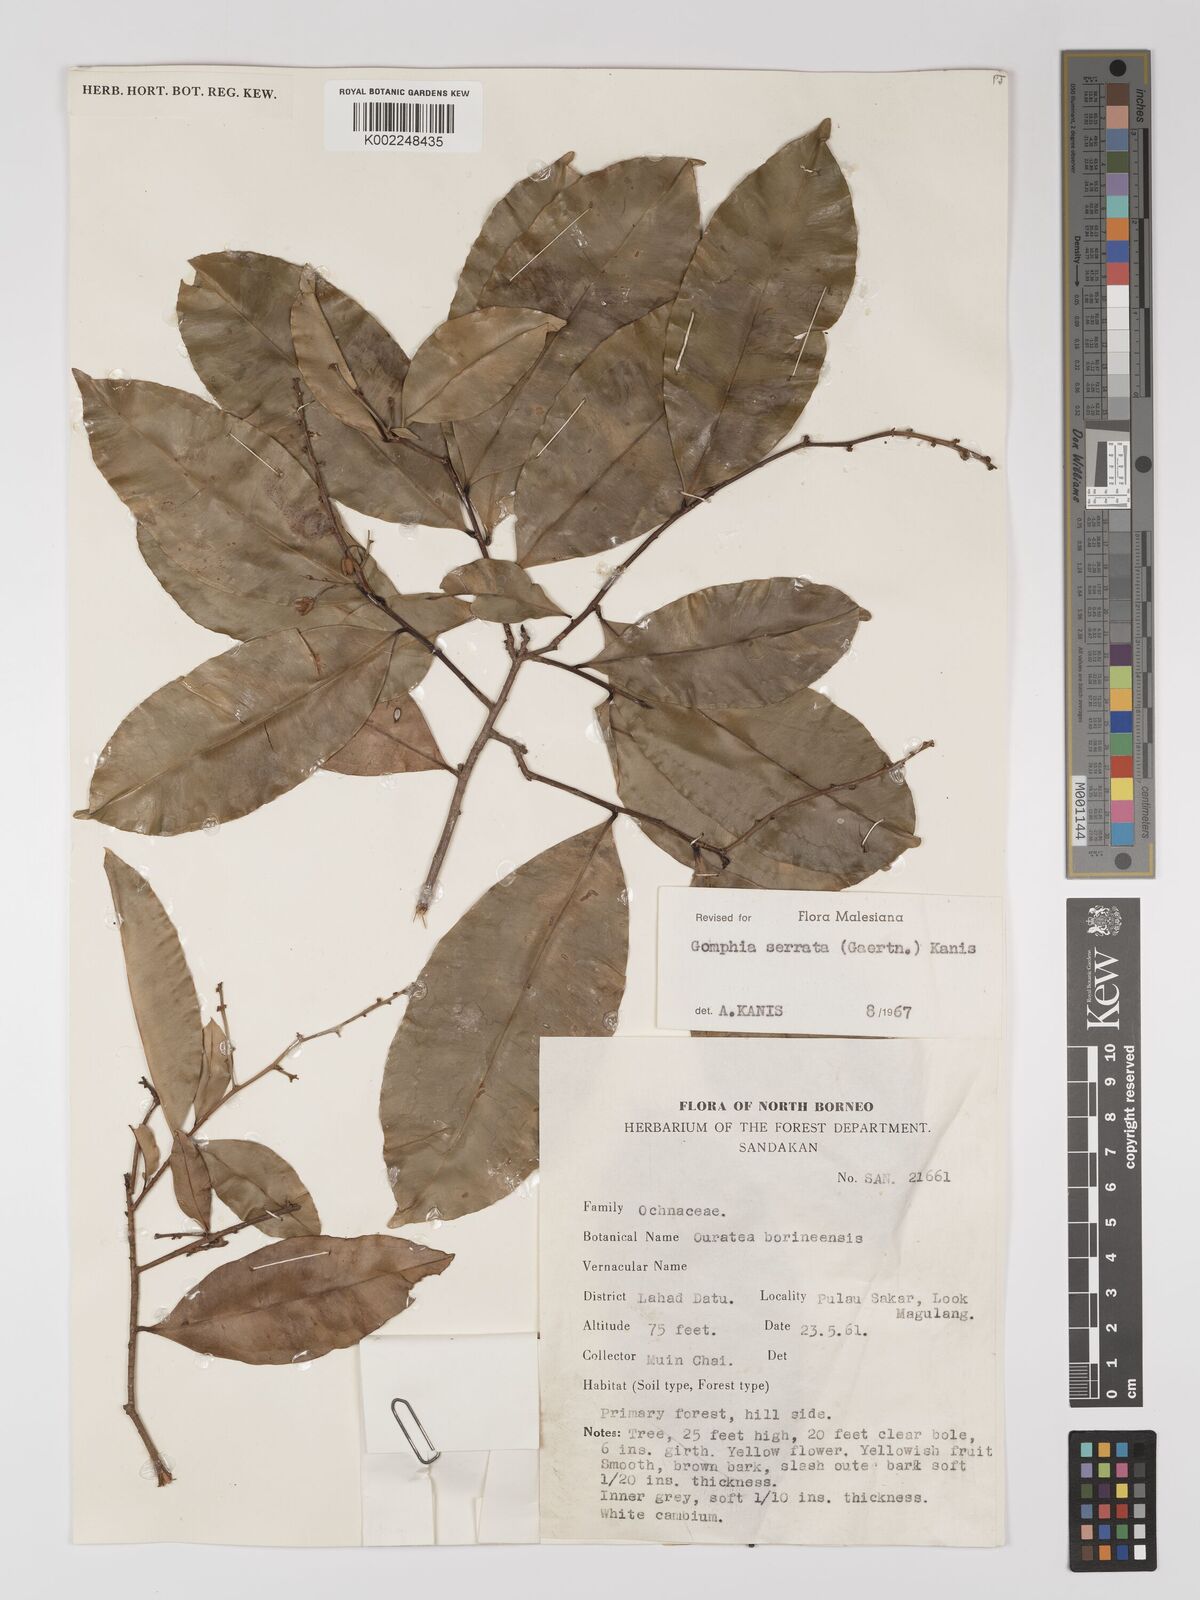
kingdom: Plantae
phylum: Tracheophyta
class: Magnoliopsida
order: Malpighiales
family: Ochnaceae
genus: Gomphia
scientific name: Gomphia serrata
